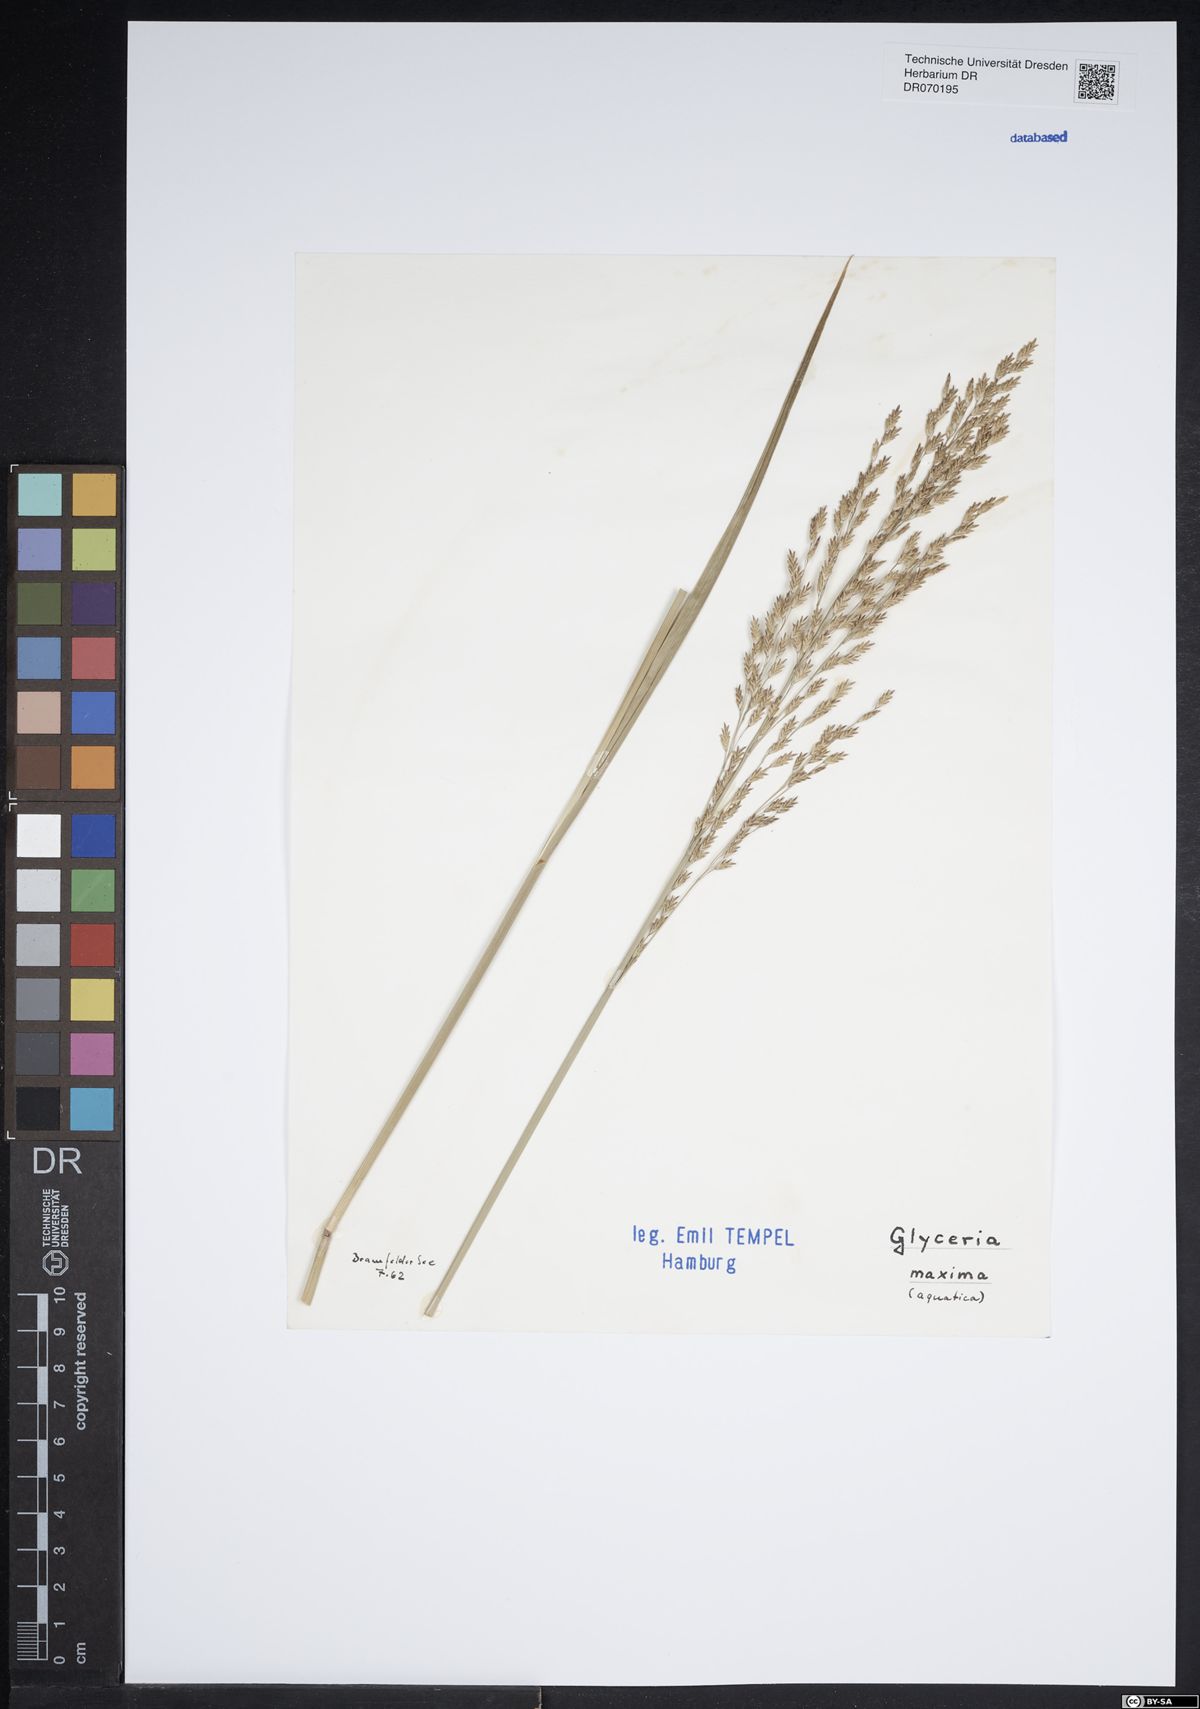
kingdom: Plantae
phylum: Tracheophyta
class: Liliopsida
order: Poales
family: Poaceae
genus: Glyceria
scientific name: Glyceria maxima
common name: Reed mannagrass
